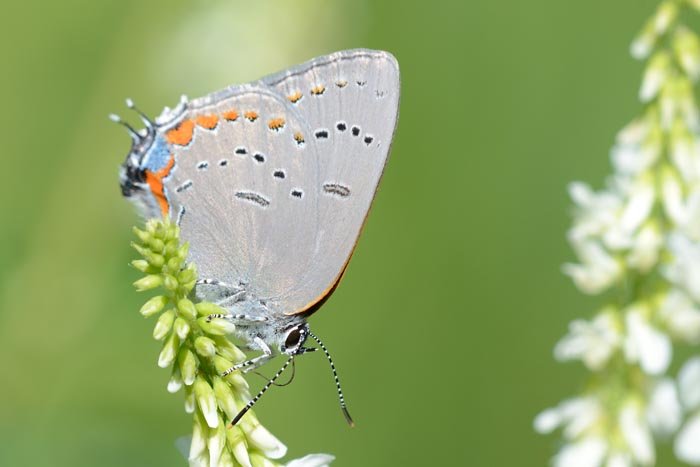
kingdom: Animalia
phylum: Arthropoda
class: Insecta
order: Lepidoptera
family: Lycaenidae
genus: Strymon
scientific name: Strymon acadica
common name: Acadian Hairstreak
